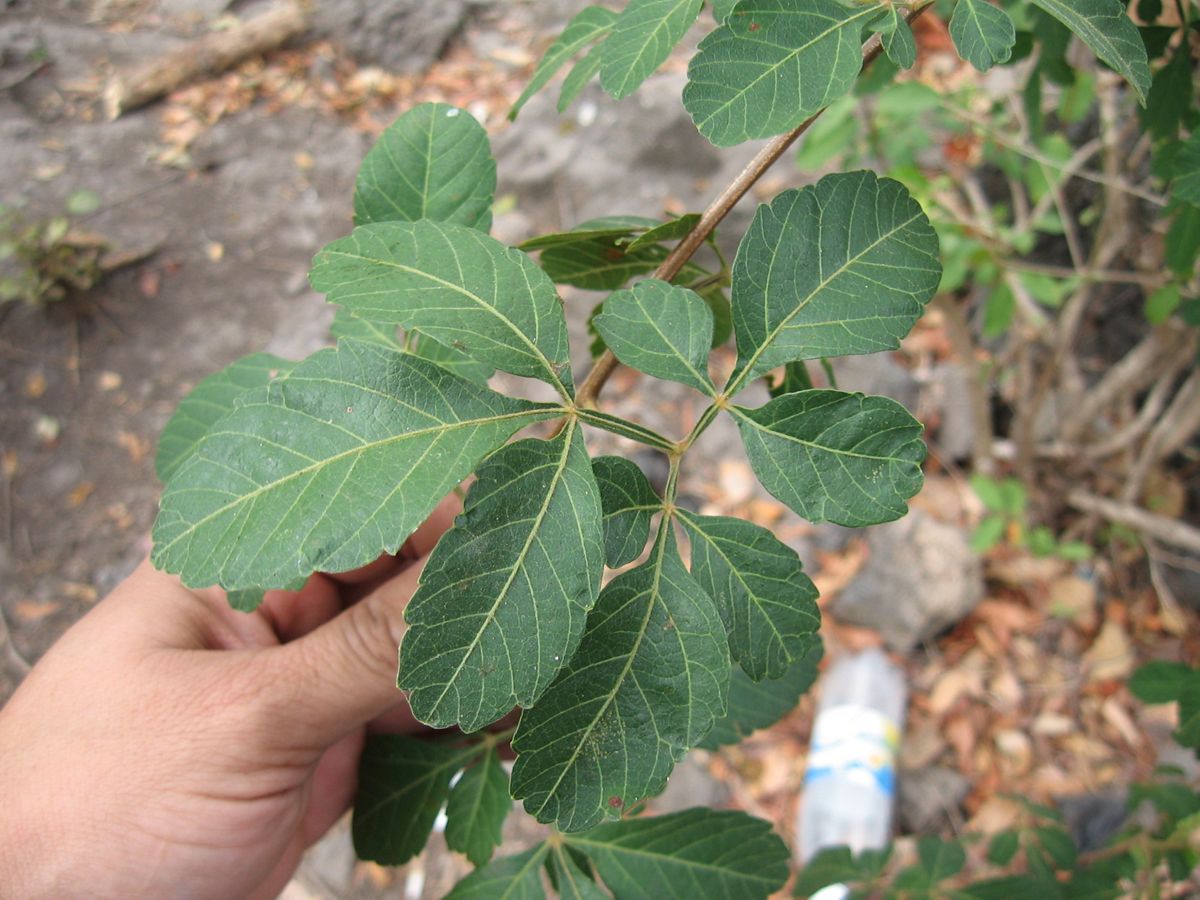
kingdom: Plantae
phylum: Tracheophyta
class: Magnoliopsida
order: Sapindales
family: Sapindaceae
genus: Serjania
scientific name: Serjania
